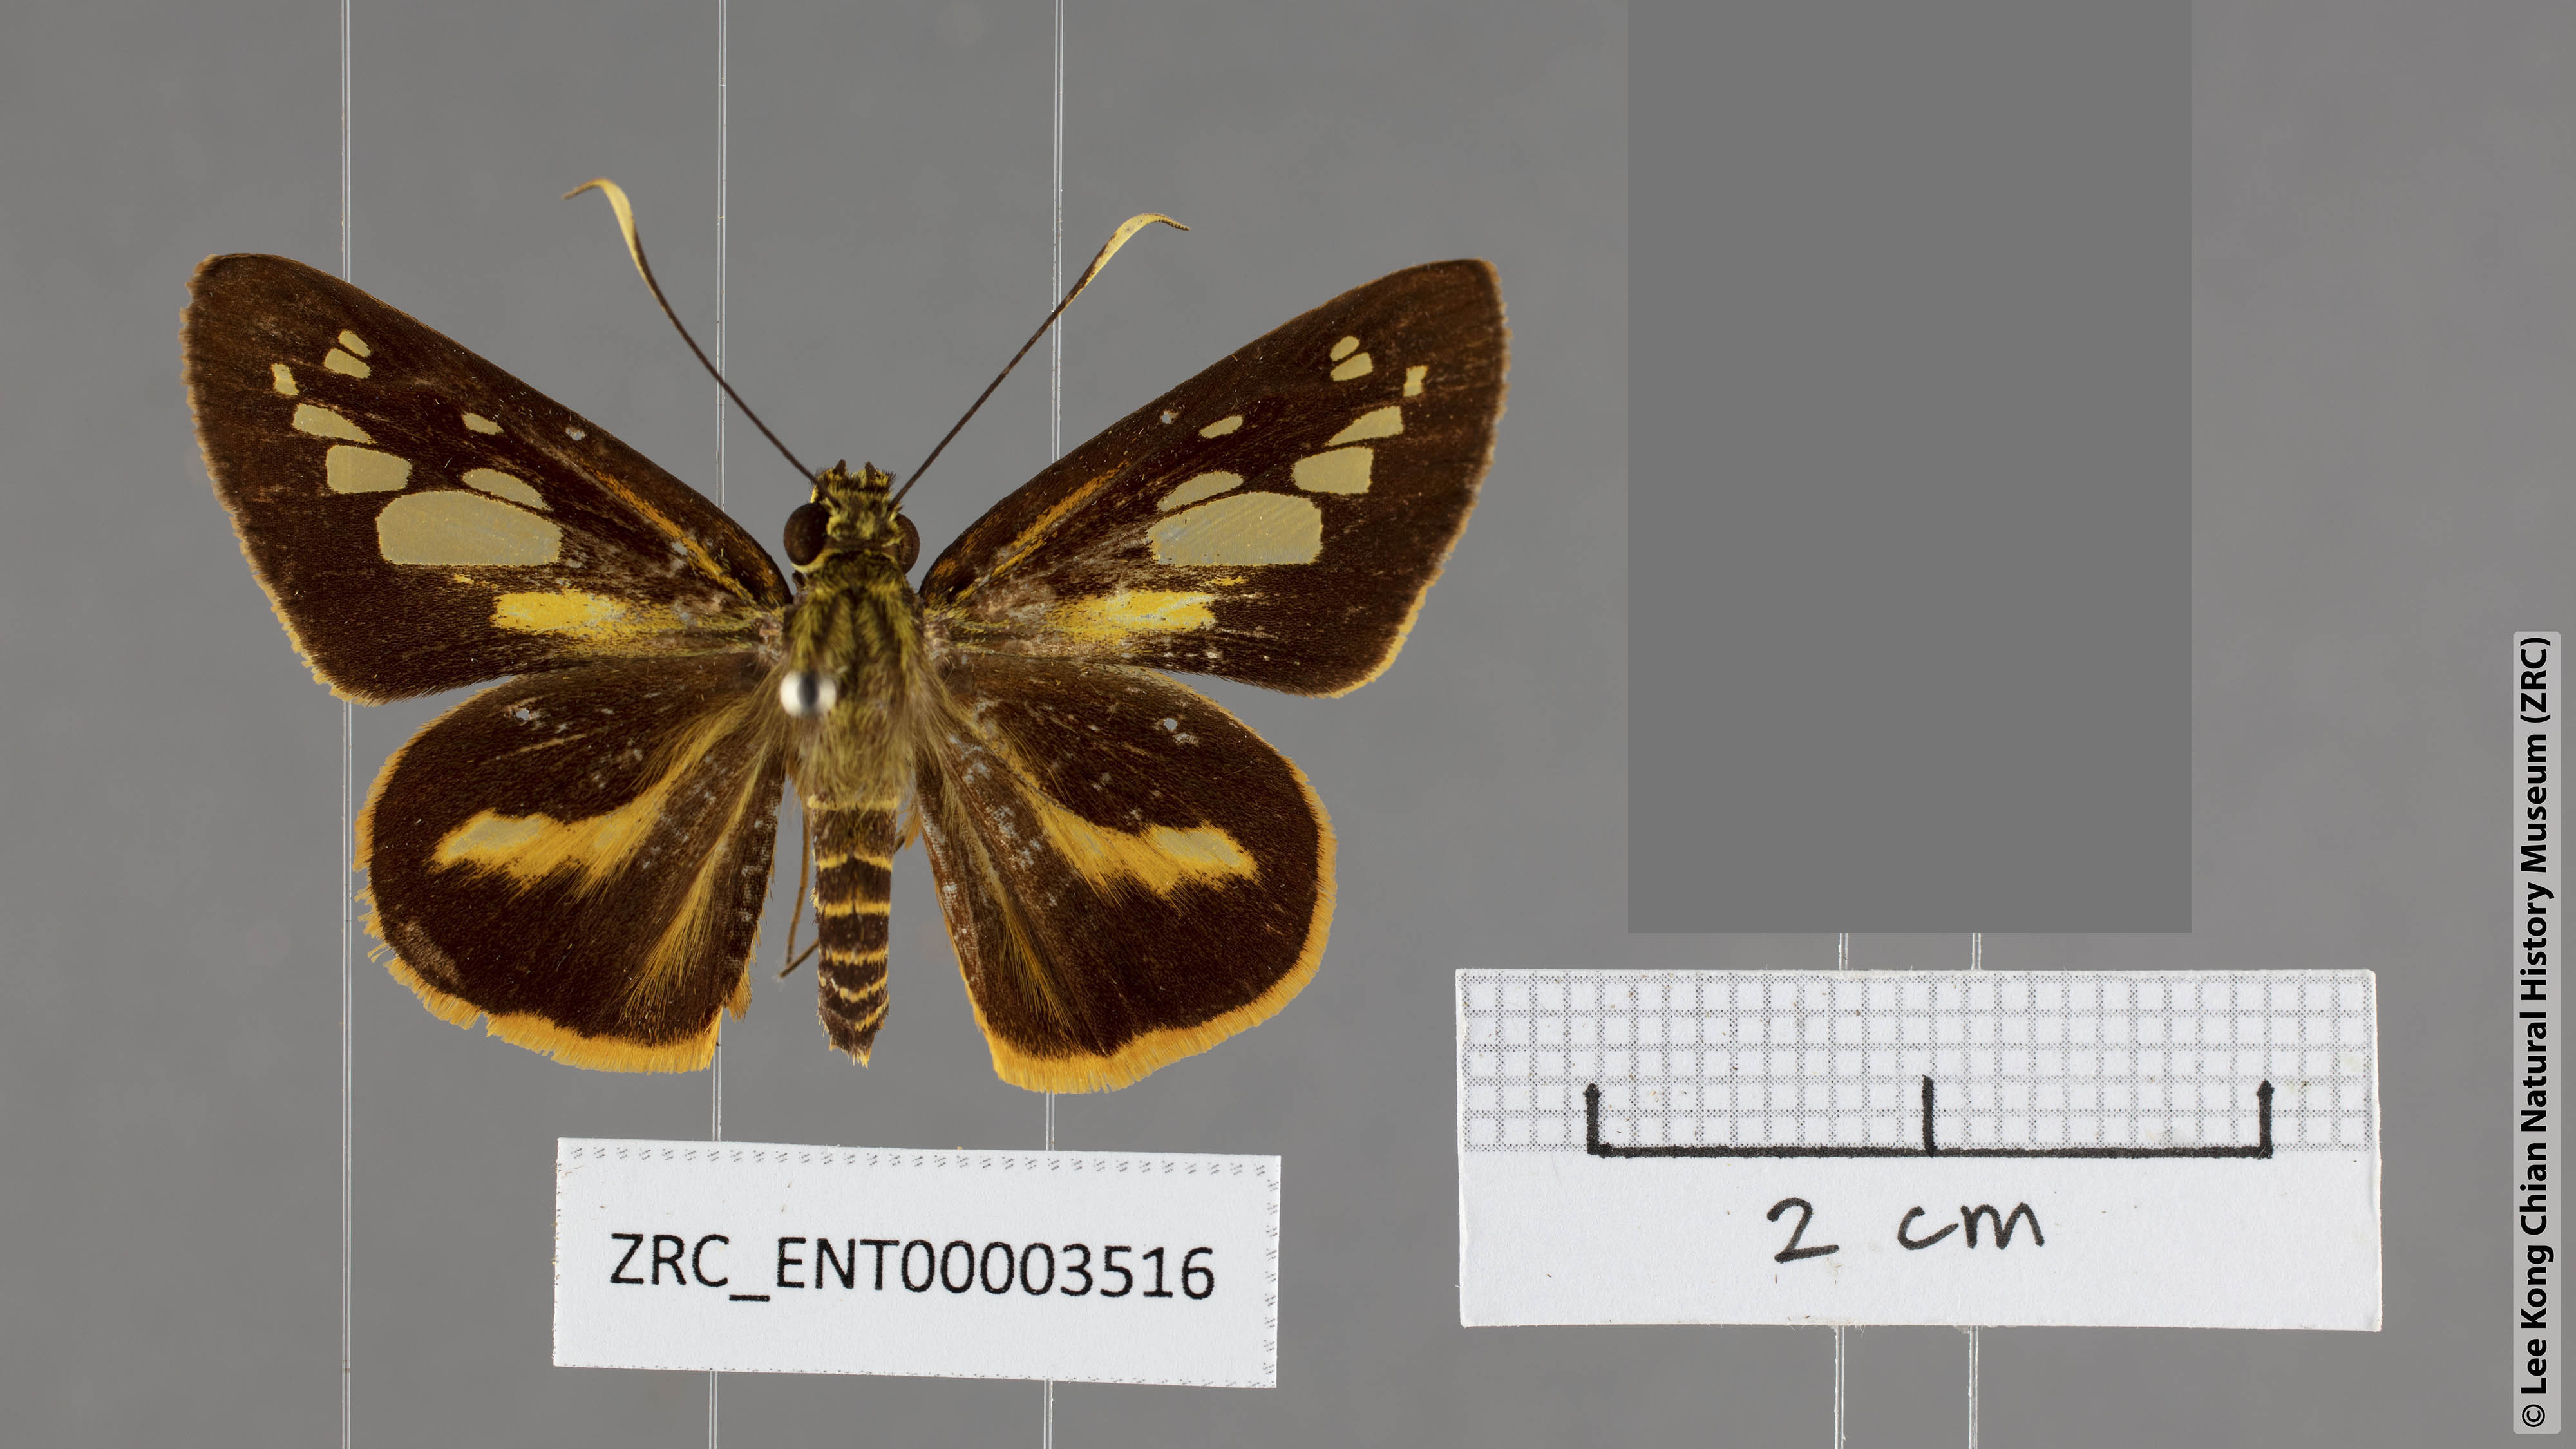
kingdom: Animalia
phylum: Arthropoda
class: Insecta
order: Lepidoptera
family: Hesperiidae
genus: Pyroneura
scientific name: Pyroneura niasana
